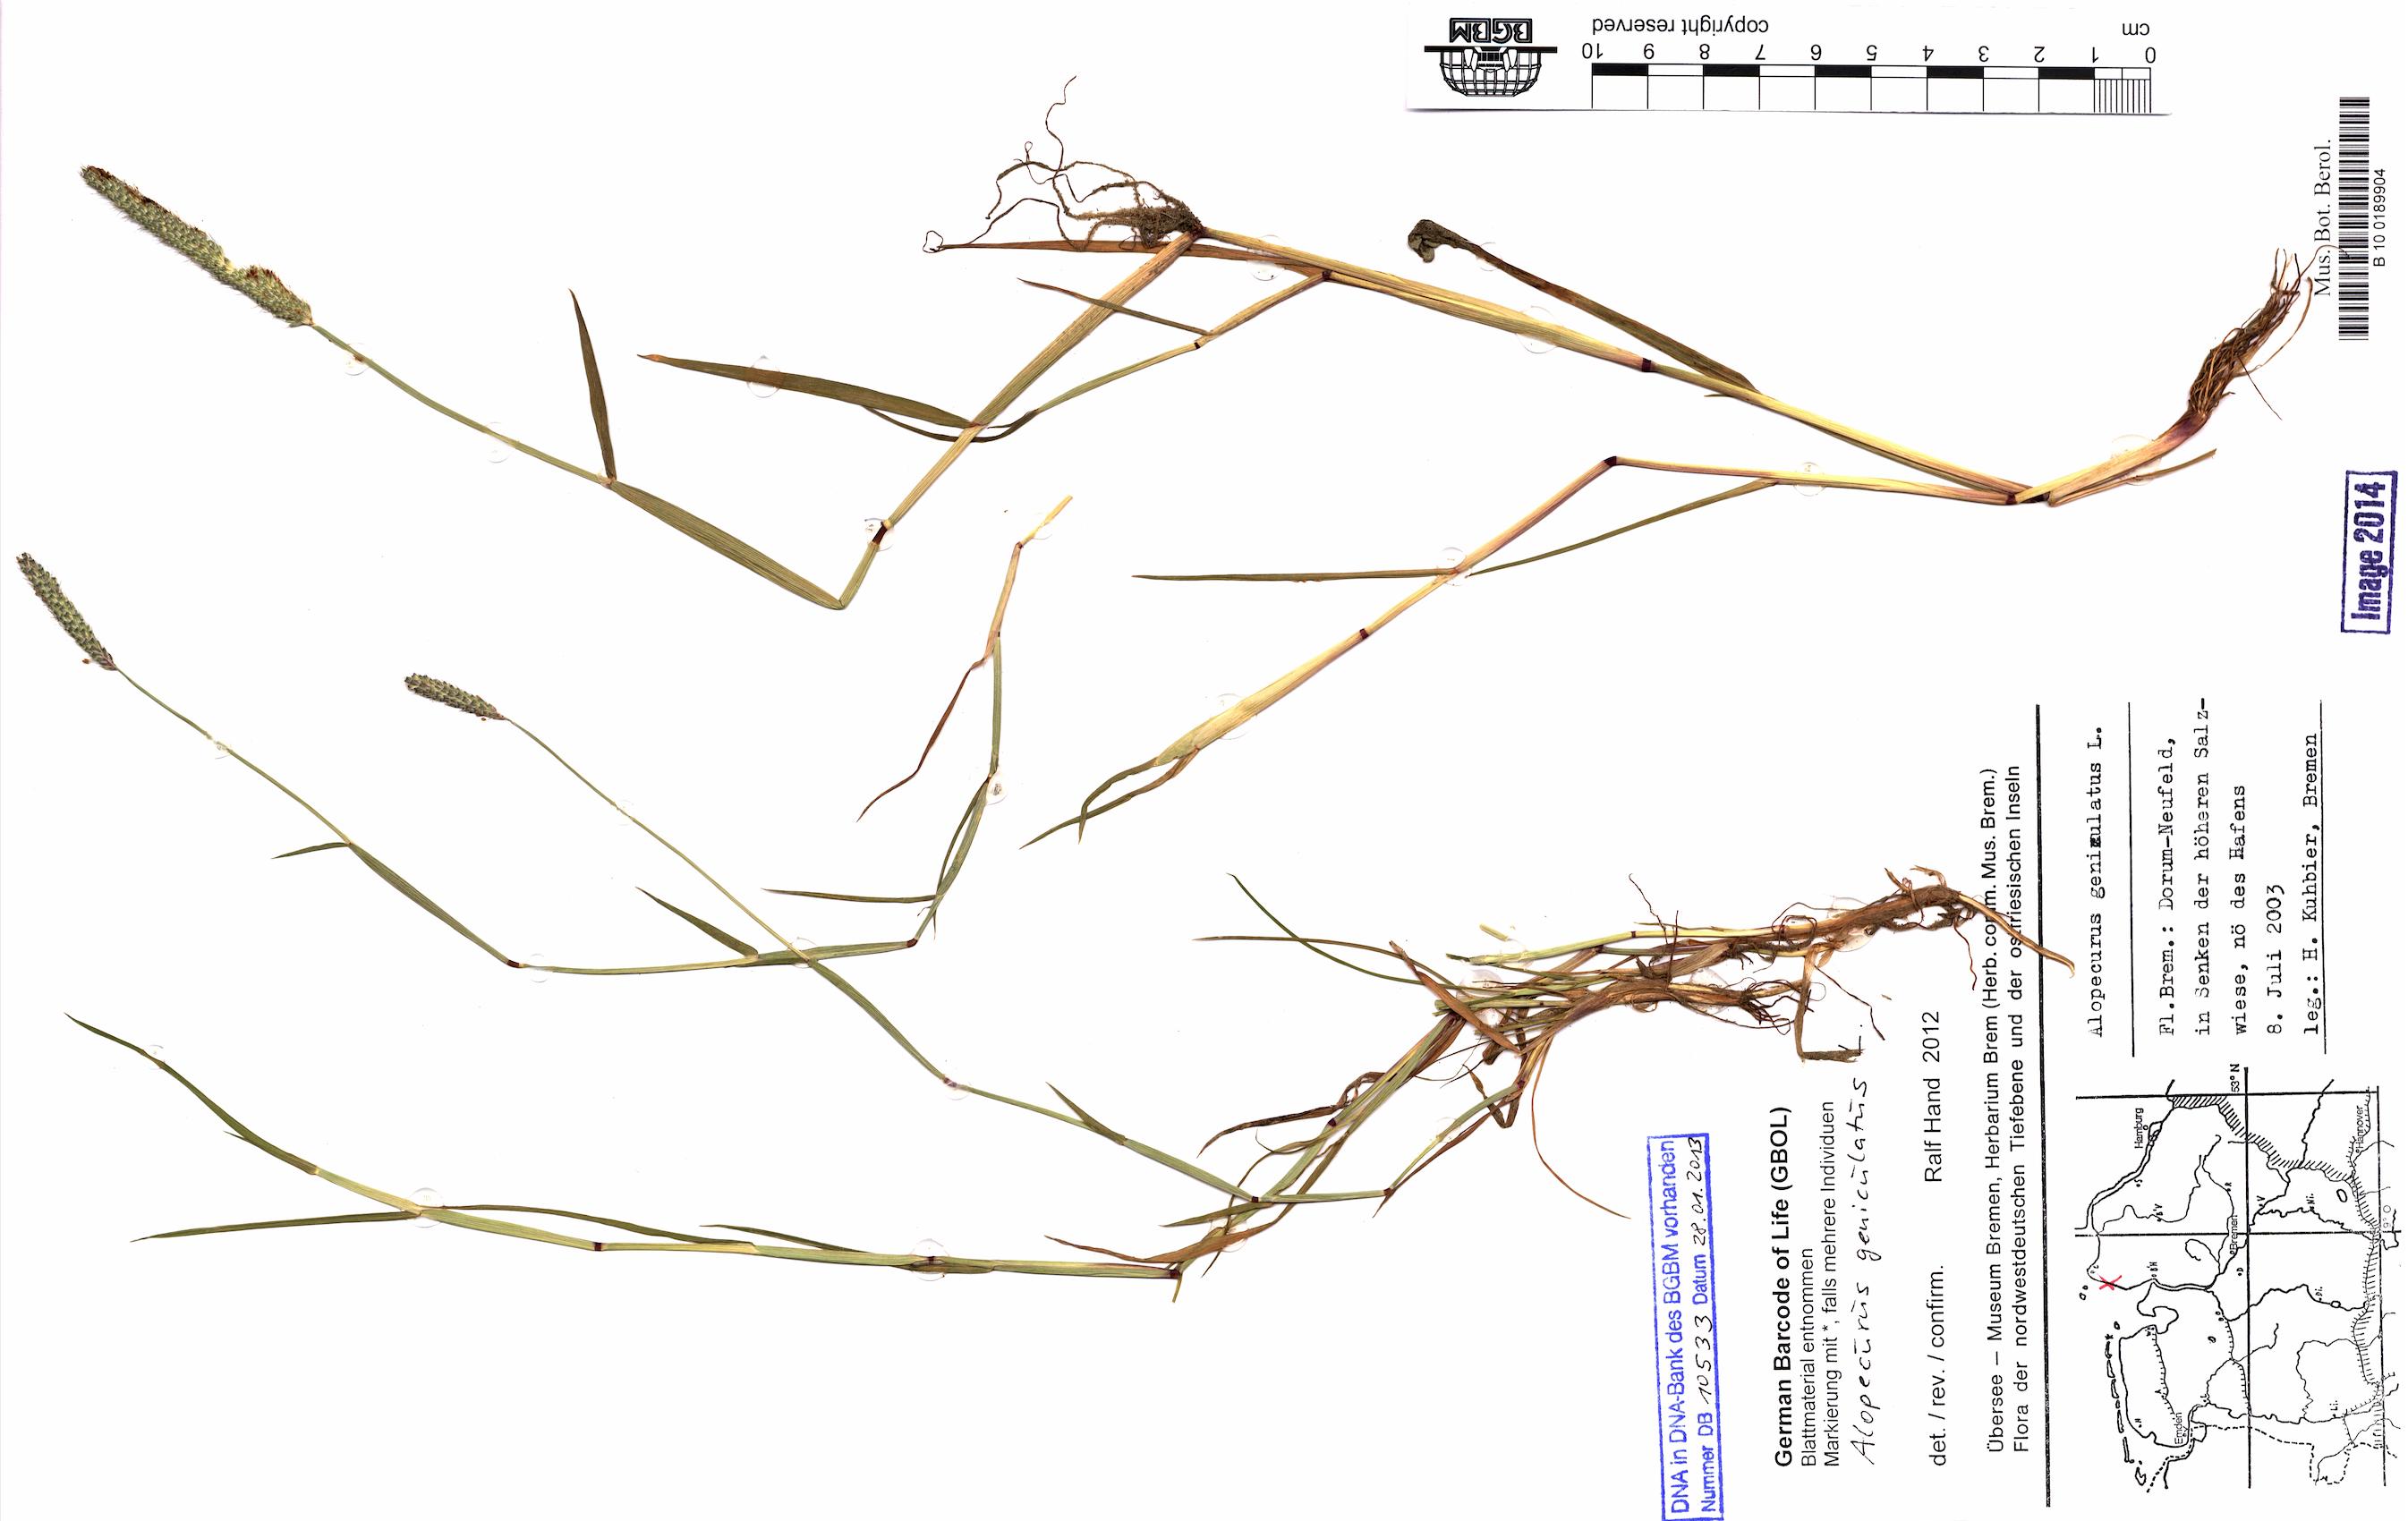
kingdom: Plantae
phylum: Tracheophyta
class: Liliopsida
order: Poales
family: Poaceae
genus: Alopecurus
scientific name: Alopecurus geniculatus
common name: Water foxtail
